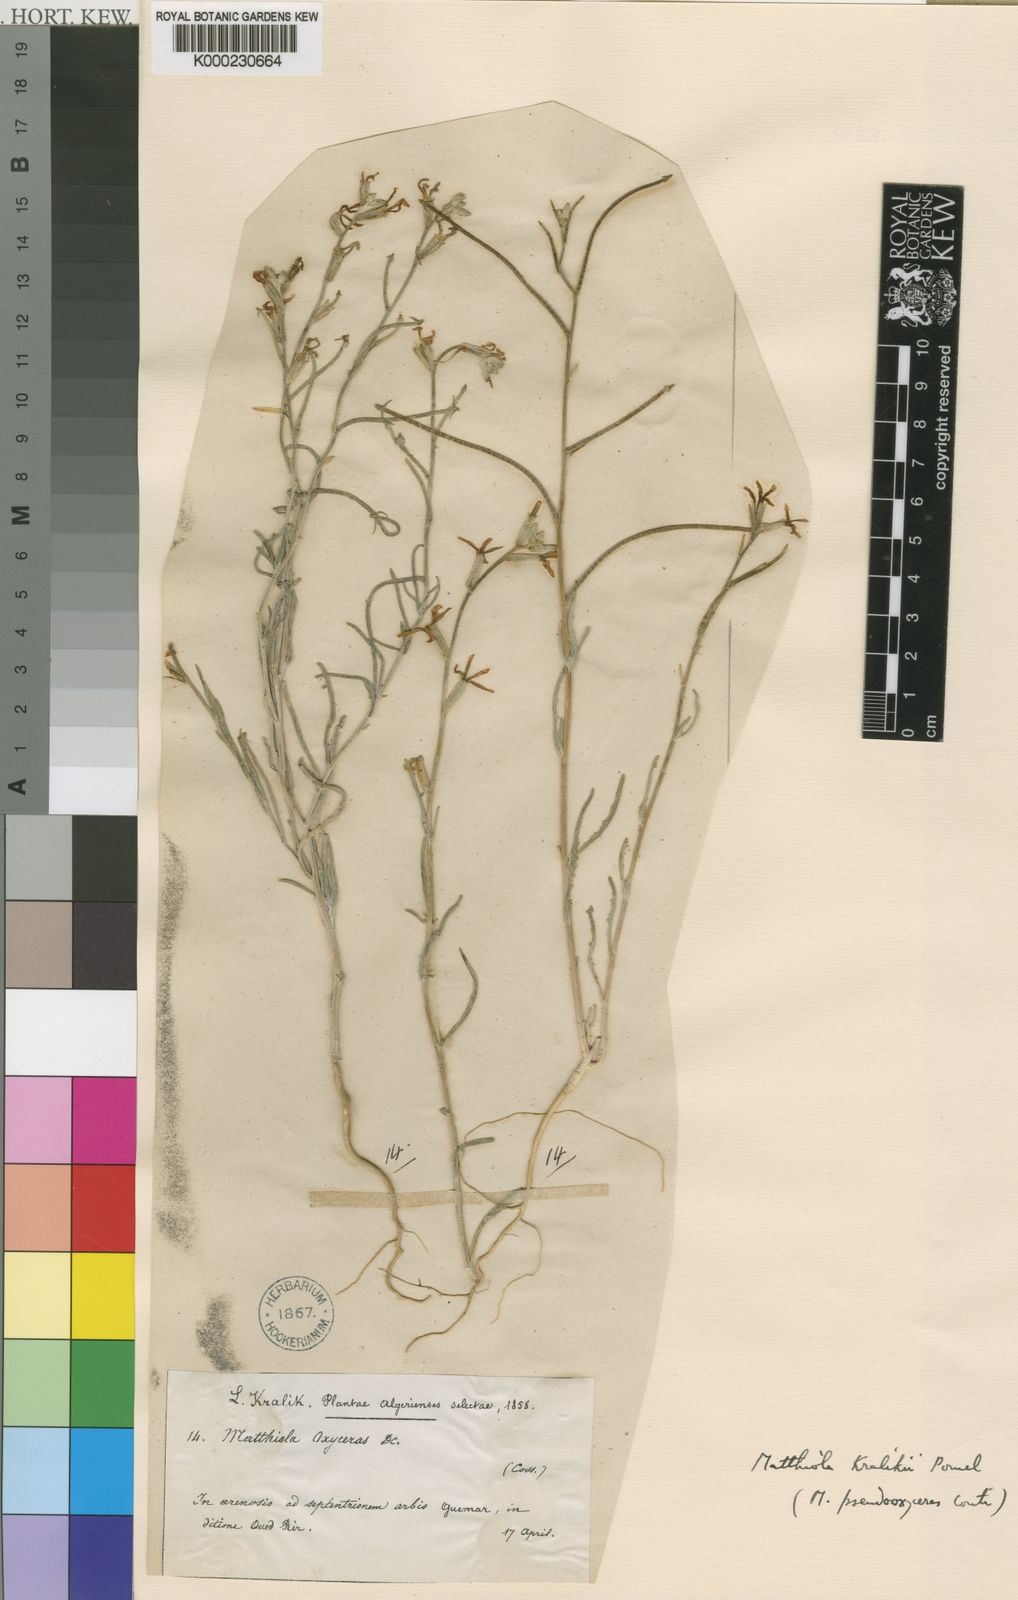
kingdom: Plantae
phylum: Tracheophyta
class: Magnoliopsida
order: Brassicales
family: Brassicaceae
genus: Matthiola
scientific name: Matthiola longipetala
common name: Night-scented stock
